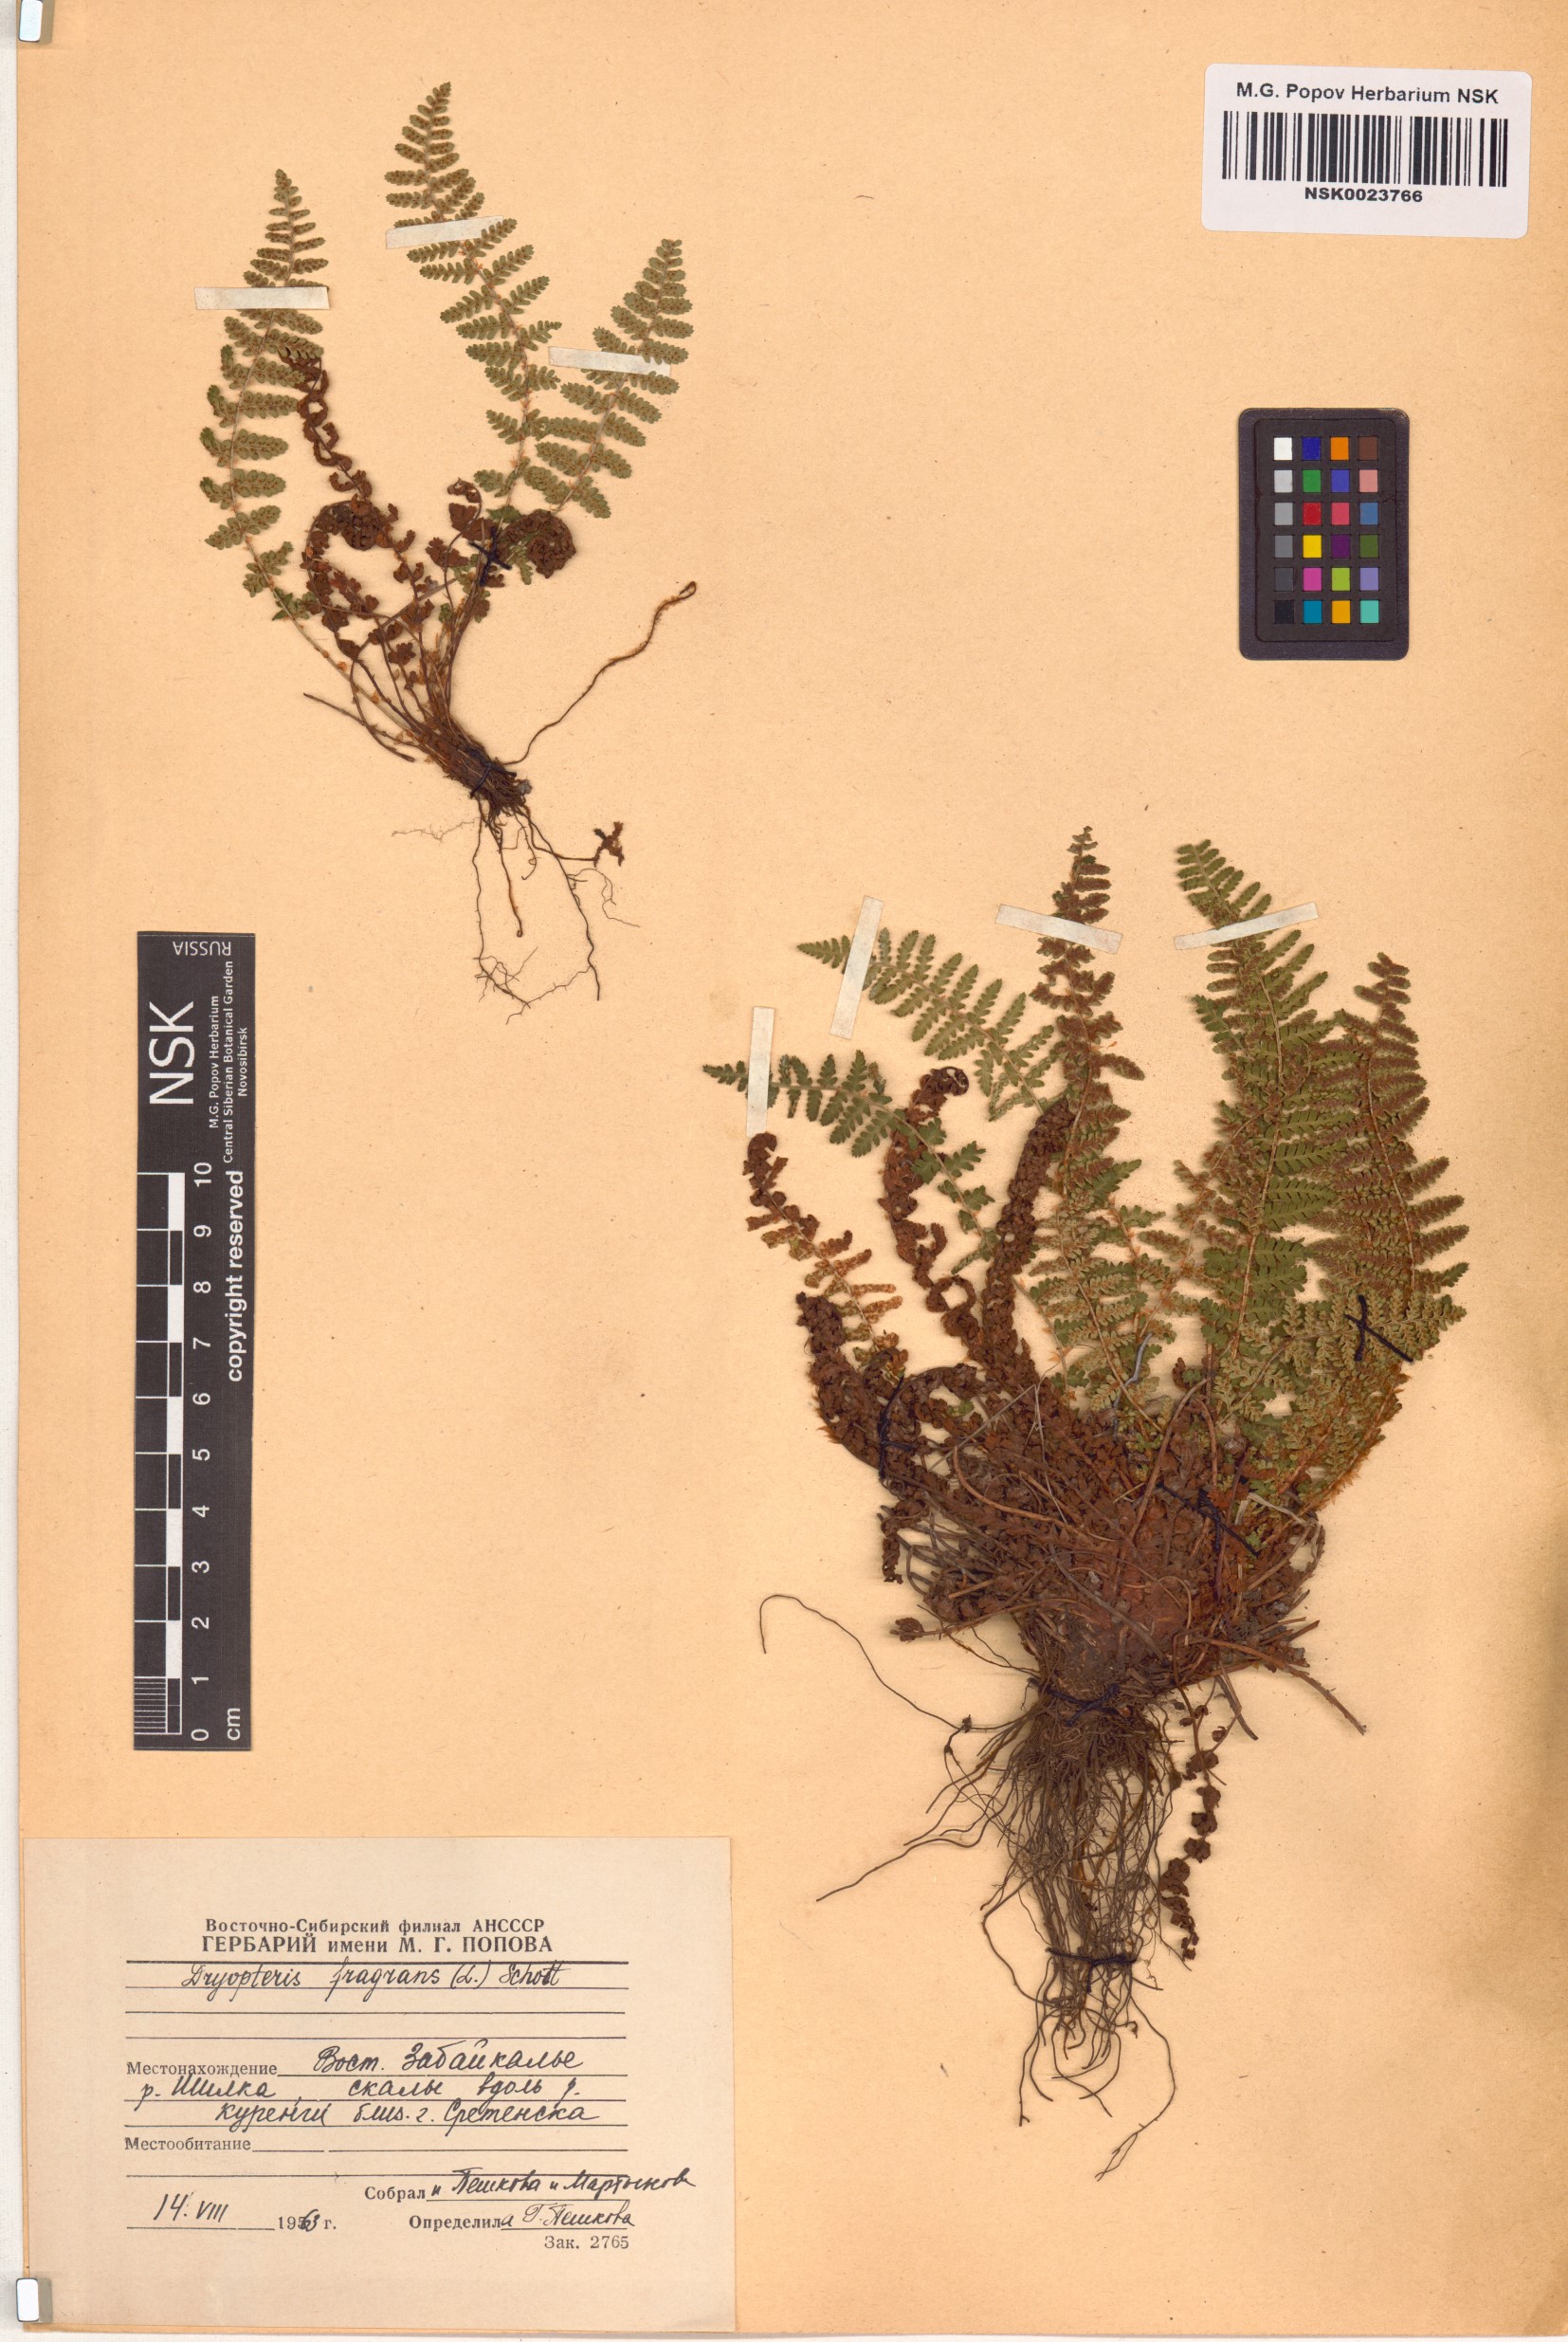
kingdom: Plantae
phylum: Tracheophyta
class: Polypodiopsida
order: Polypodiales
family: Dryopteridaceae
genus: Dryopteris
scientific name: Dryopteris fragrans
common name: Fragrant wood fern
